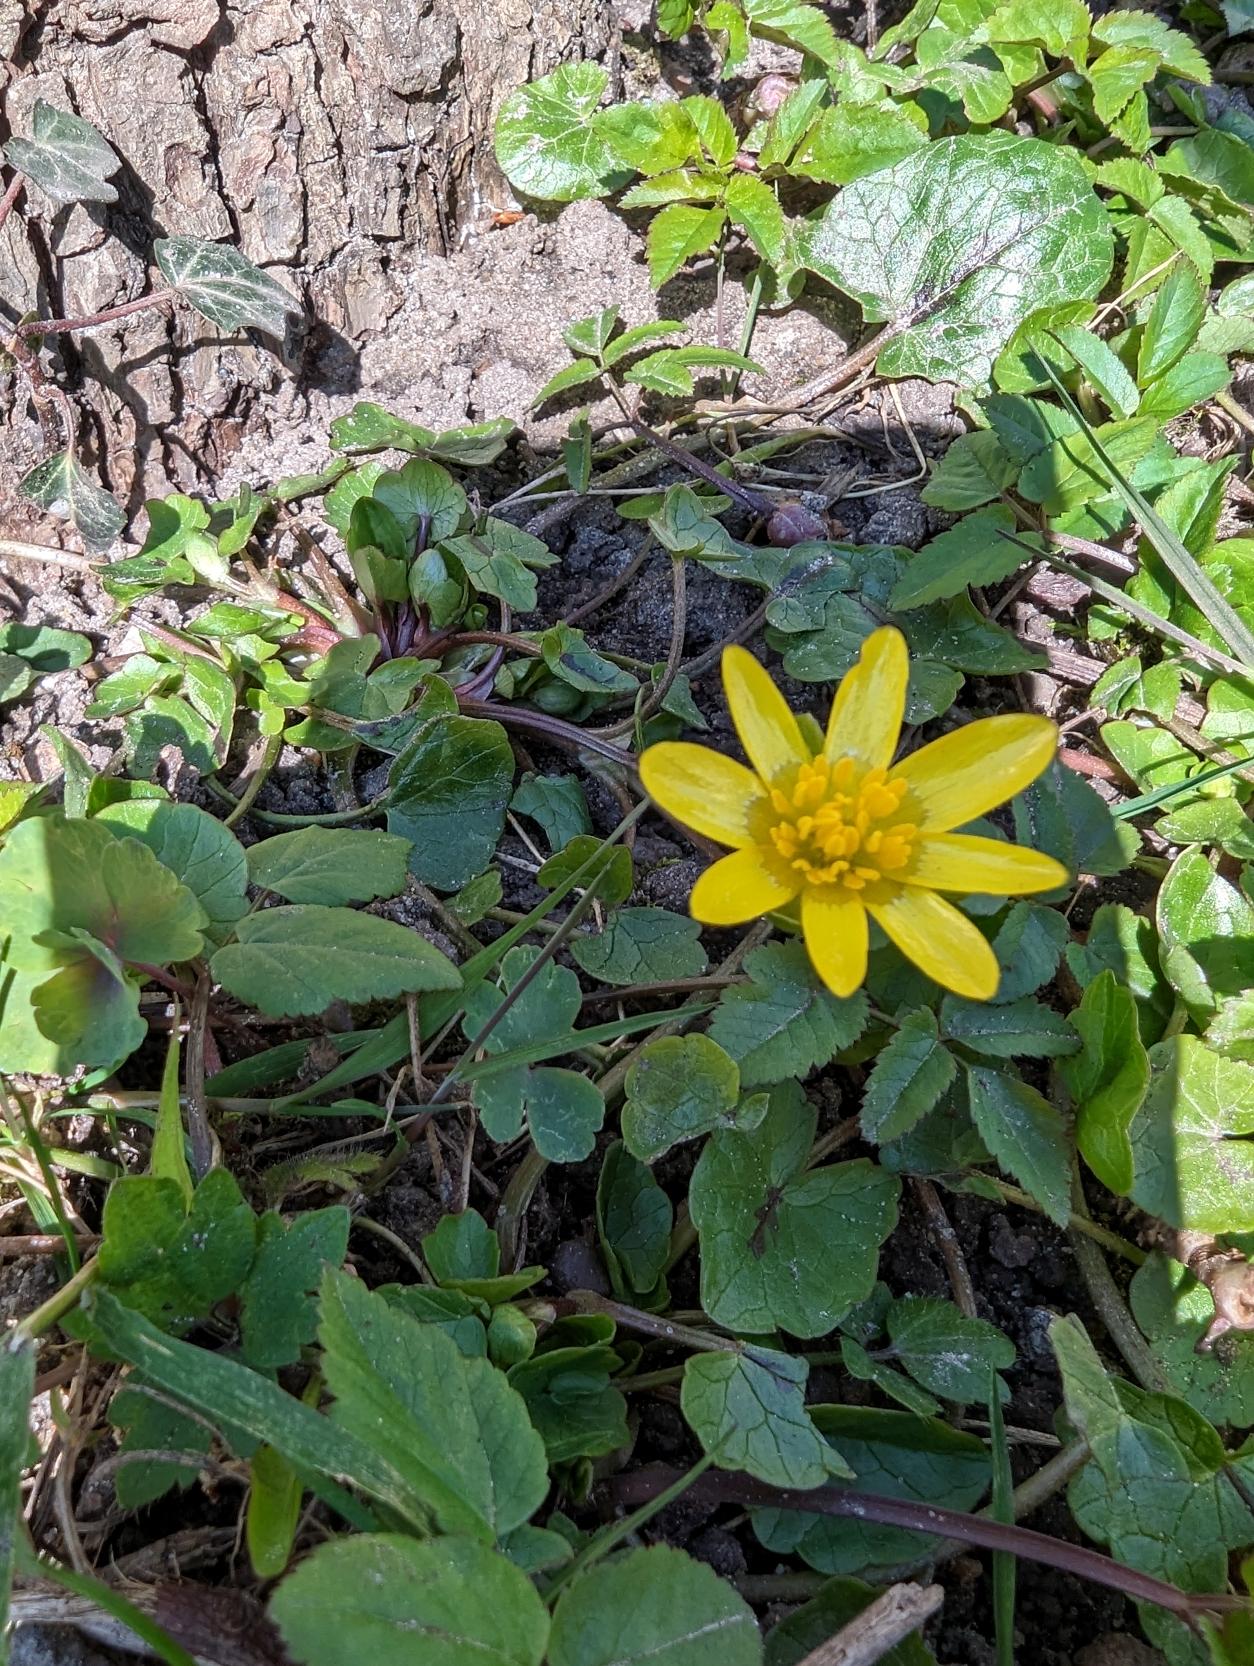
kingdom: Plantae
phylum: Tracheophyta
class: Magnoliopsida
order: Ranunculales
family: Ranunculaceae
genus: Ficaria
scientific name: Ficaria verna
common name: Vorterod
